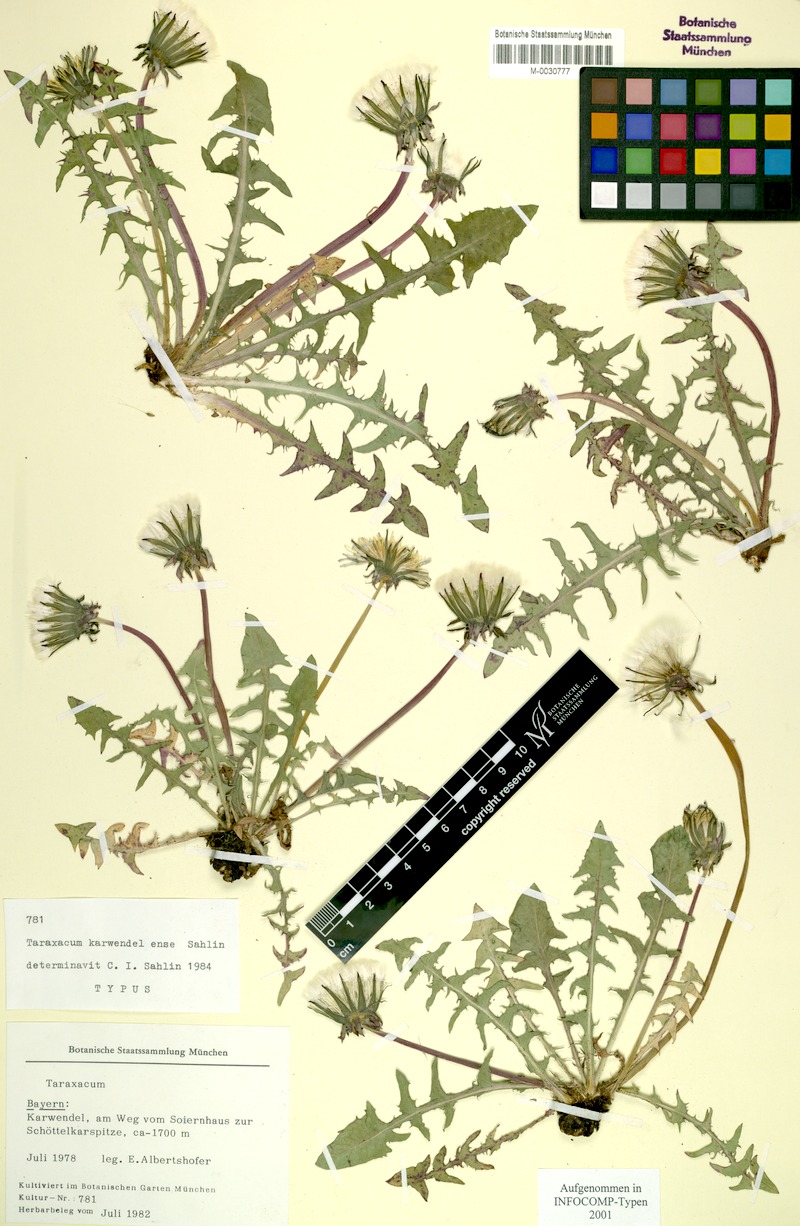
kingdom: Plantae
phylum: Tracheophyta
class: Magnoliopsida
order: Asterales
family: Asteraceae
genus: Taraxacum
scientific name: Taraxacum karwendelense
